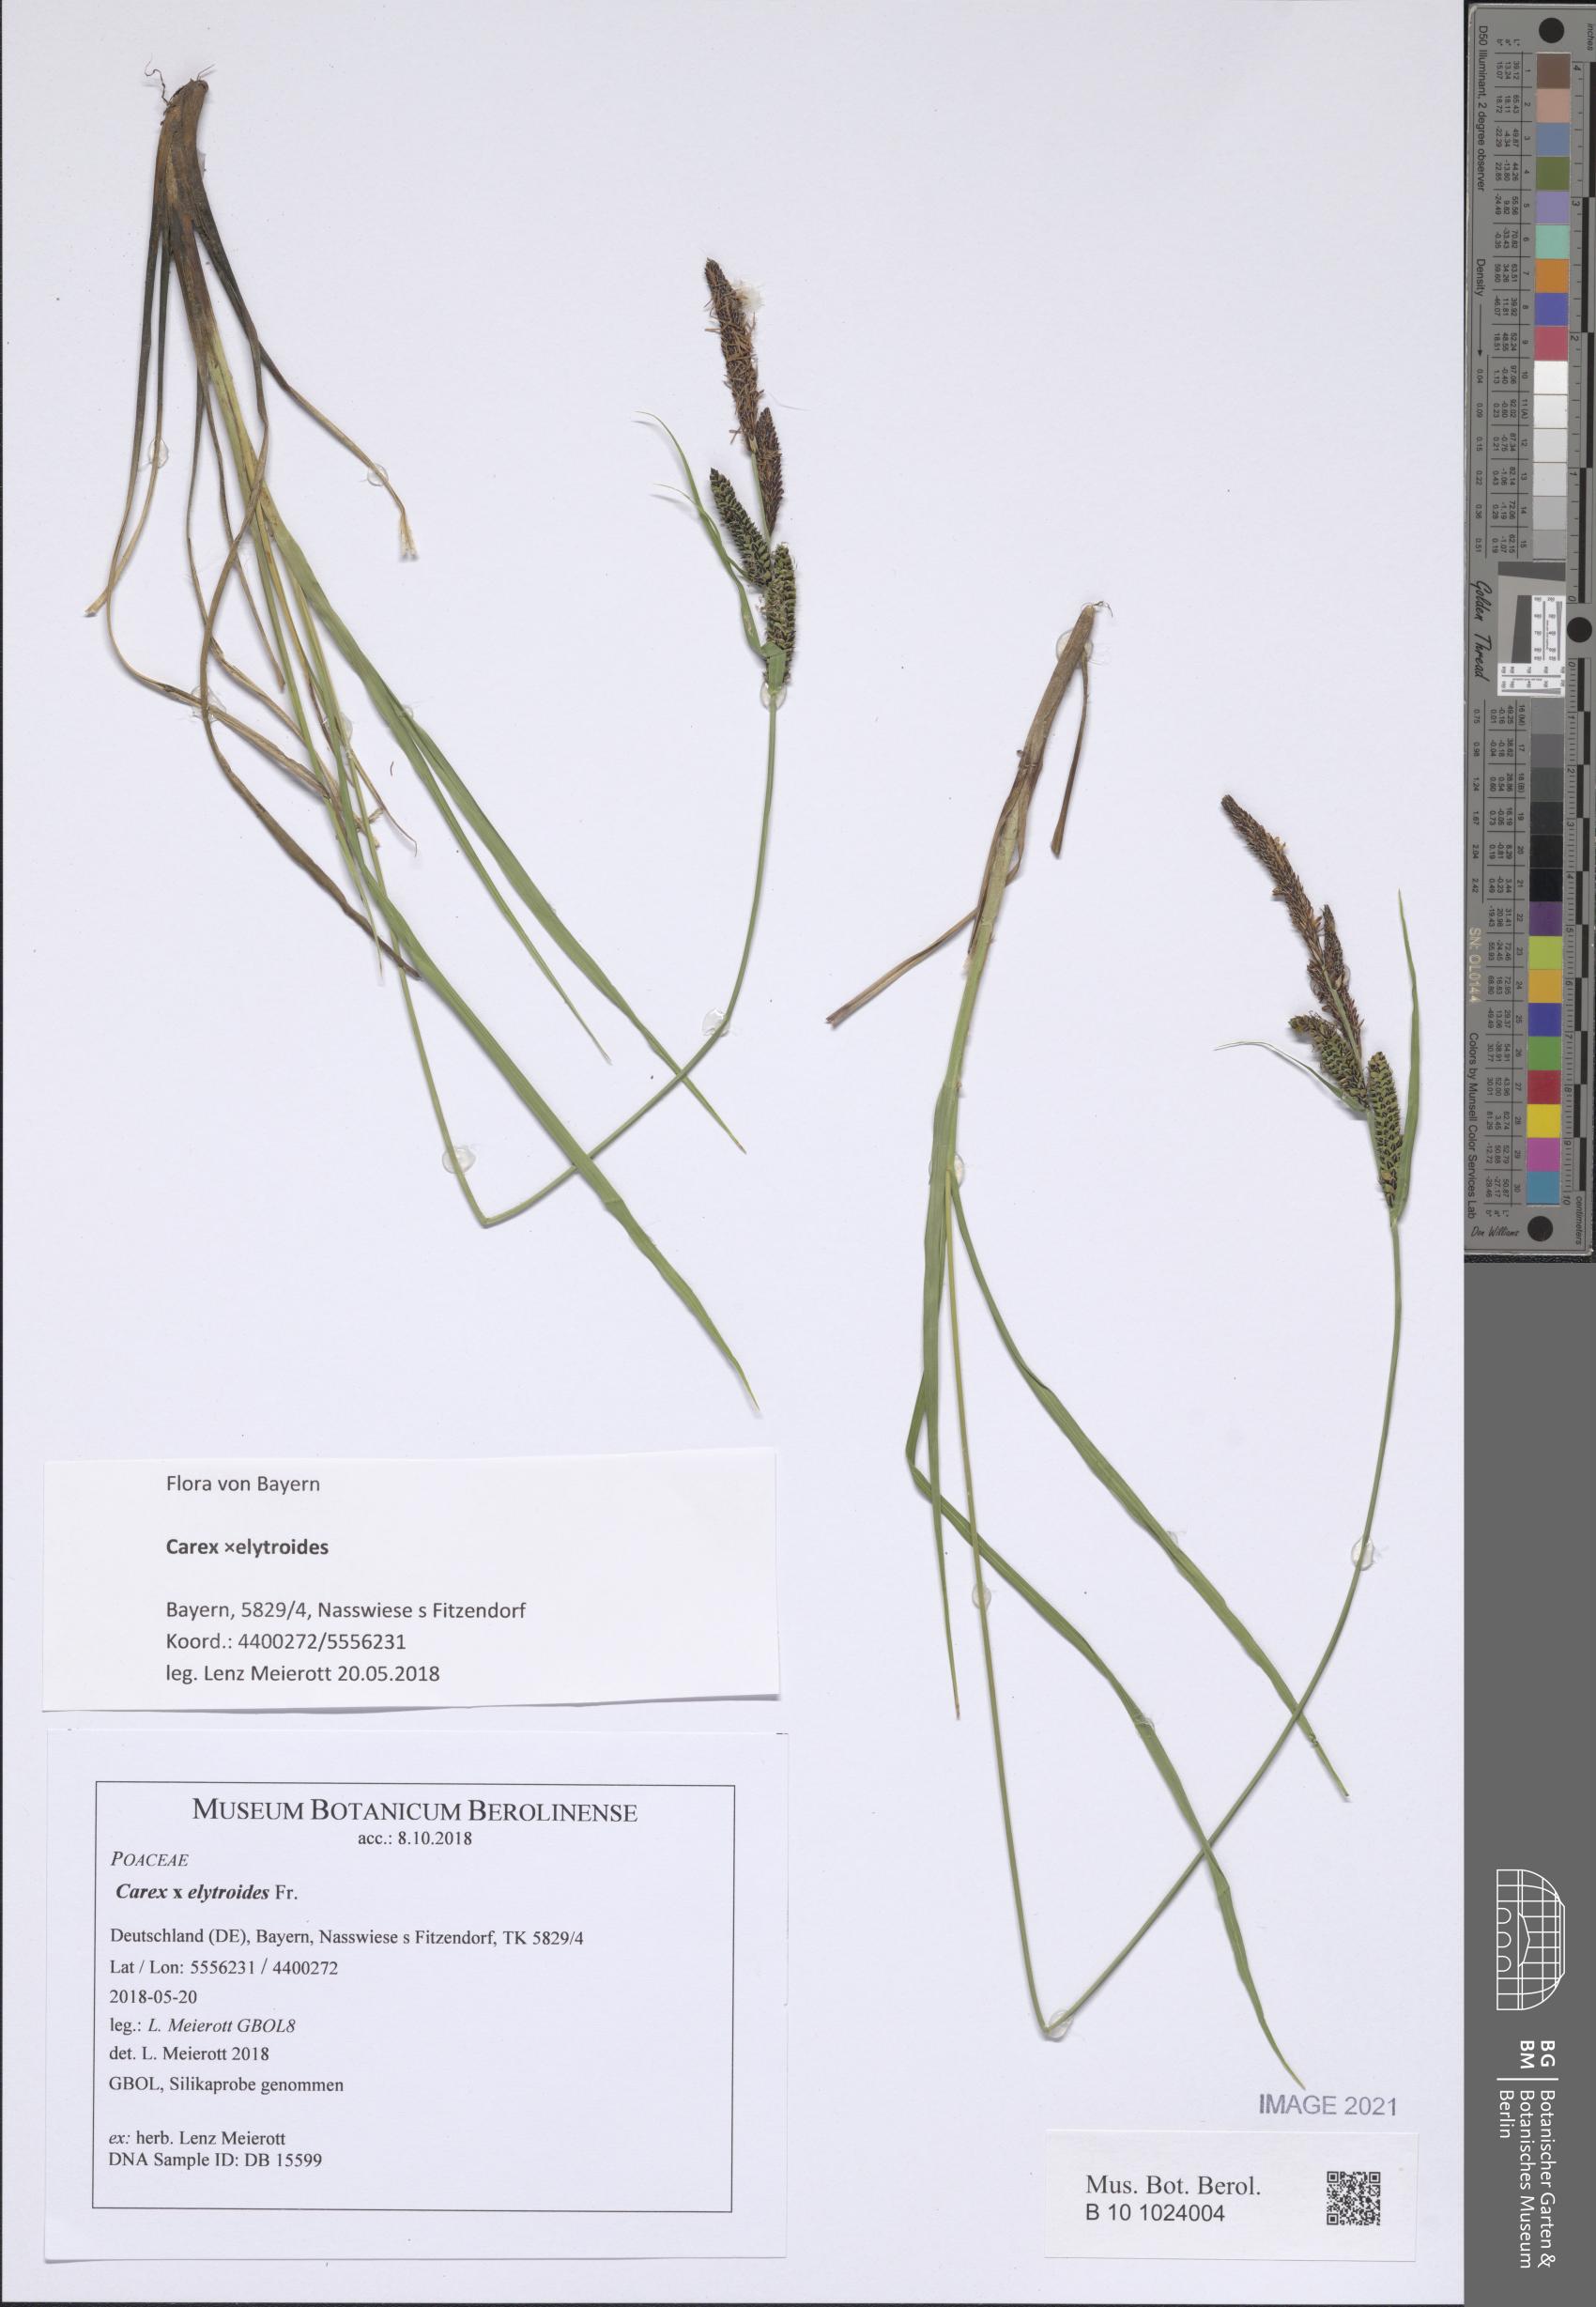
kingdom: Plantae
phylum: Tracheophyta
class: Liliopsida
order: Poales
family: Cyperaceae
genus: Carex
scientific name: Carex elytroides
